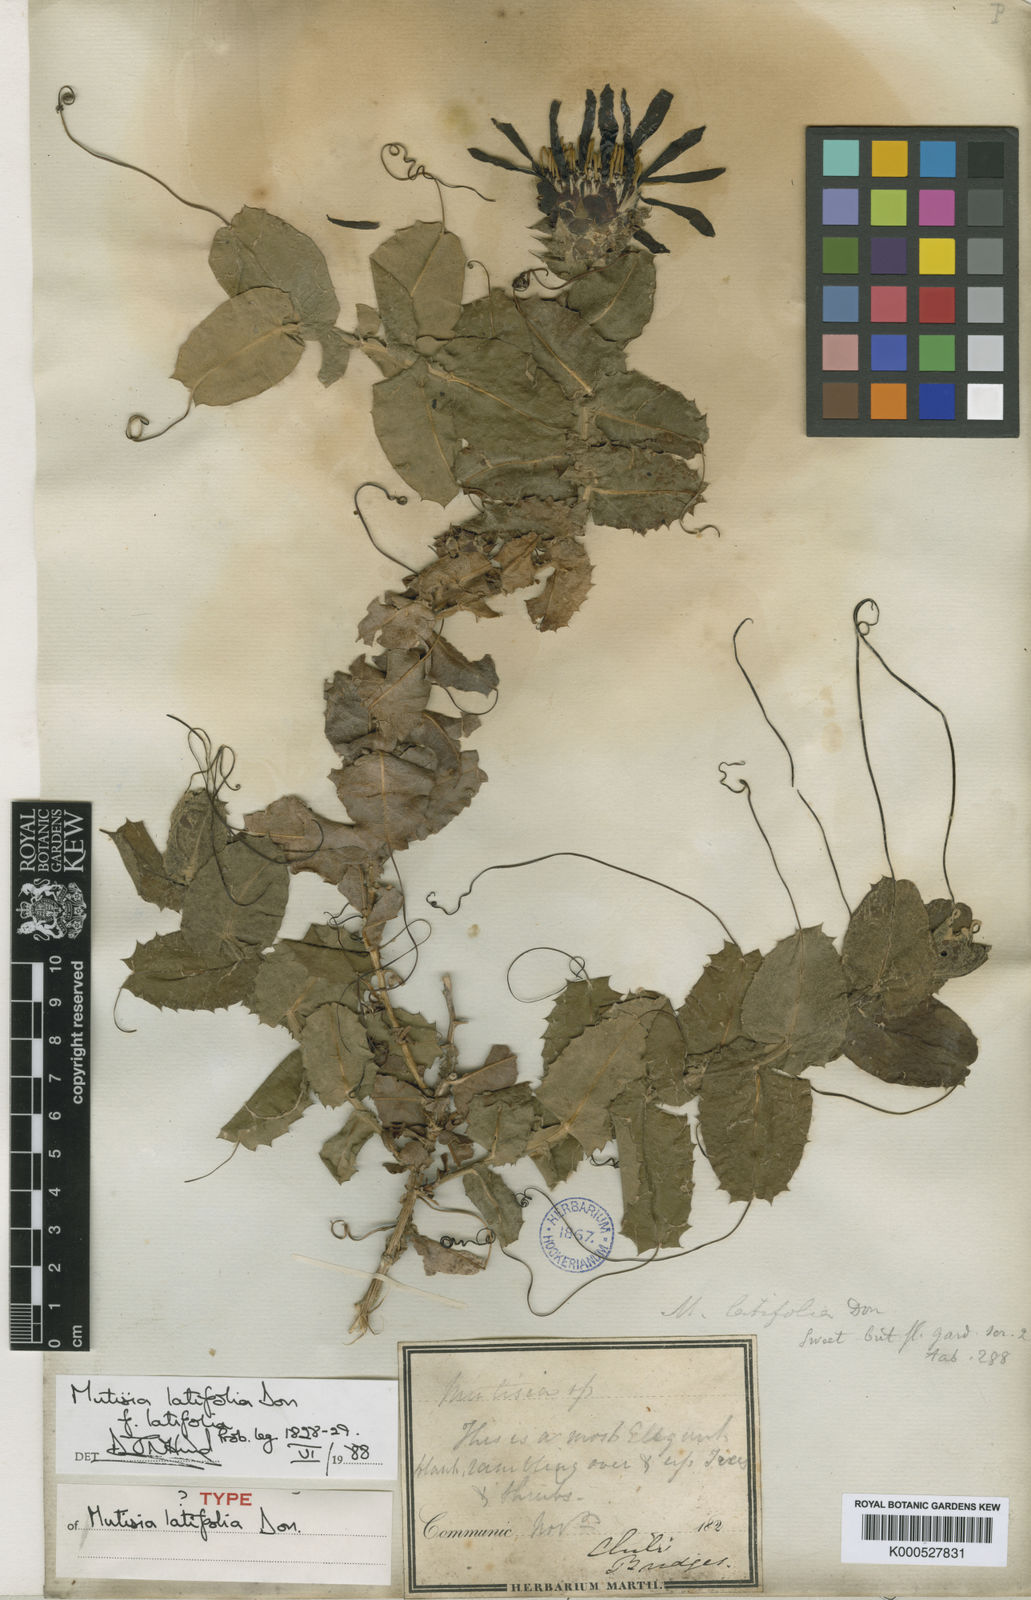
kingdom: Plantae
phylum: Tracheophyta
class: Magnoliopsida
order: Asterales
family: Asteraceae
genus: Mutisia
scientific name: Mutisia latifolia
